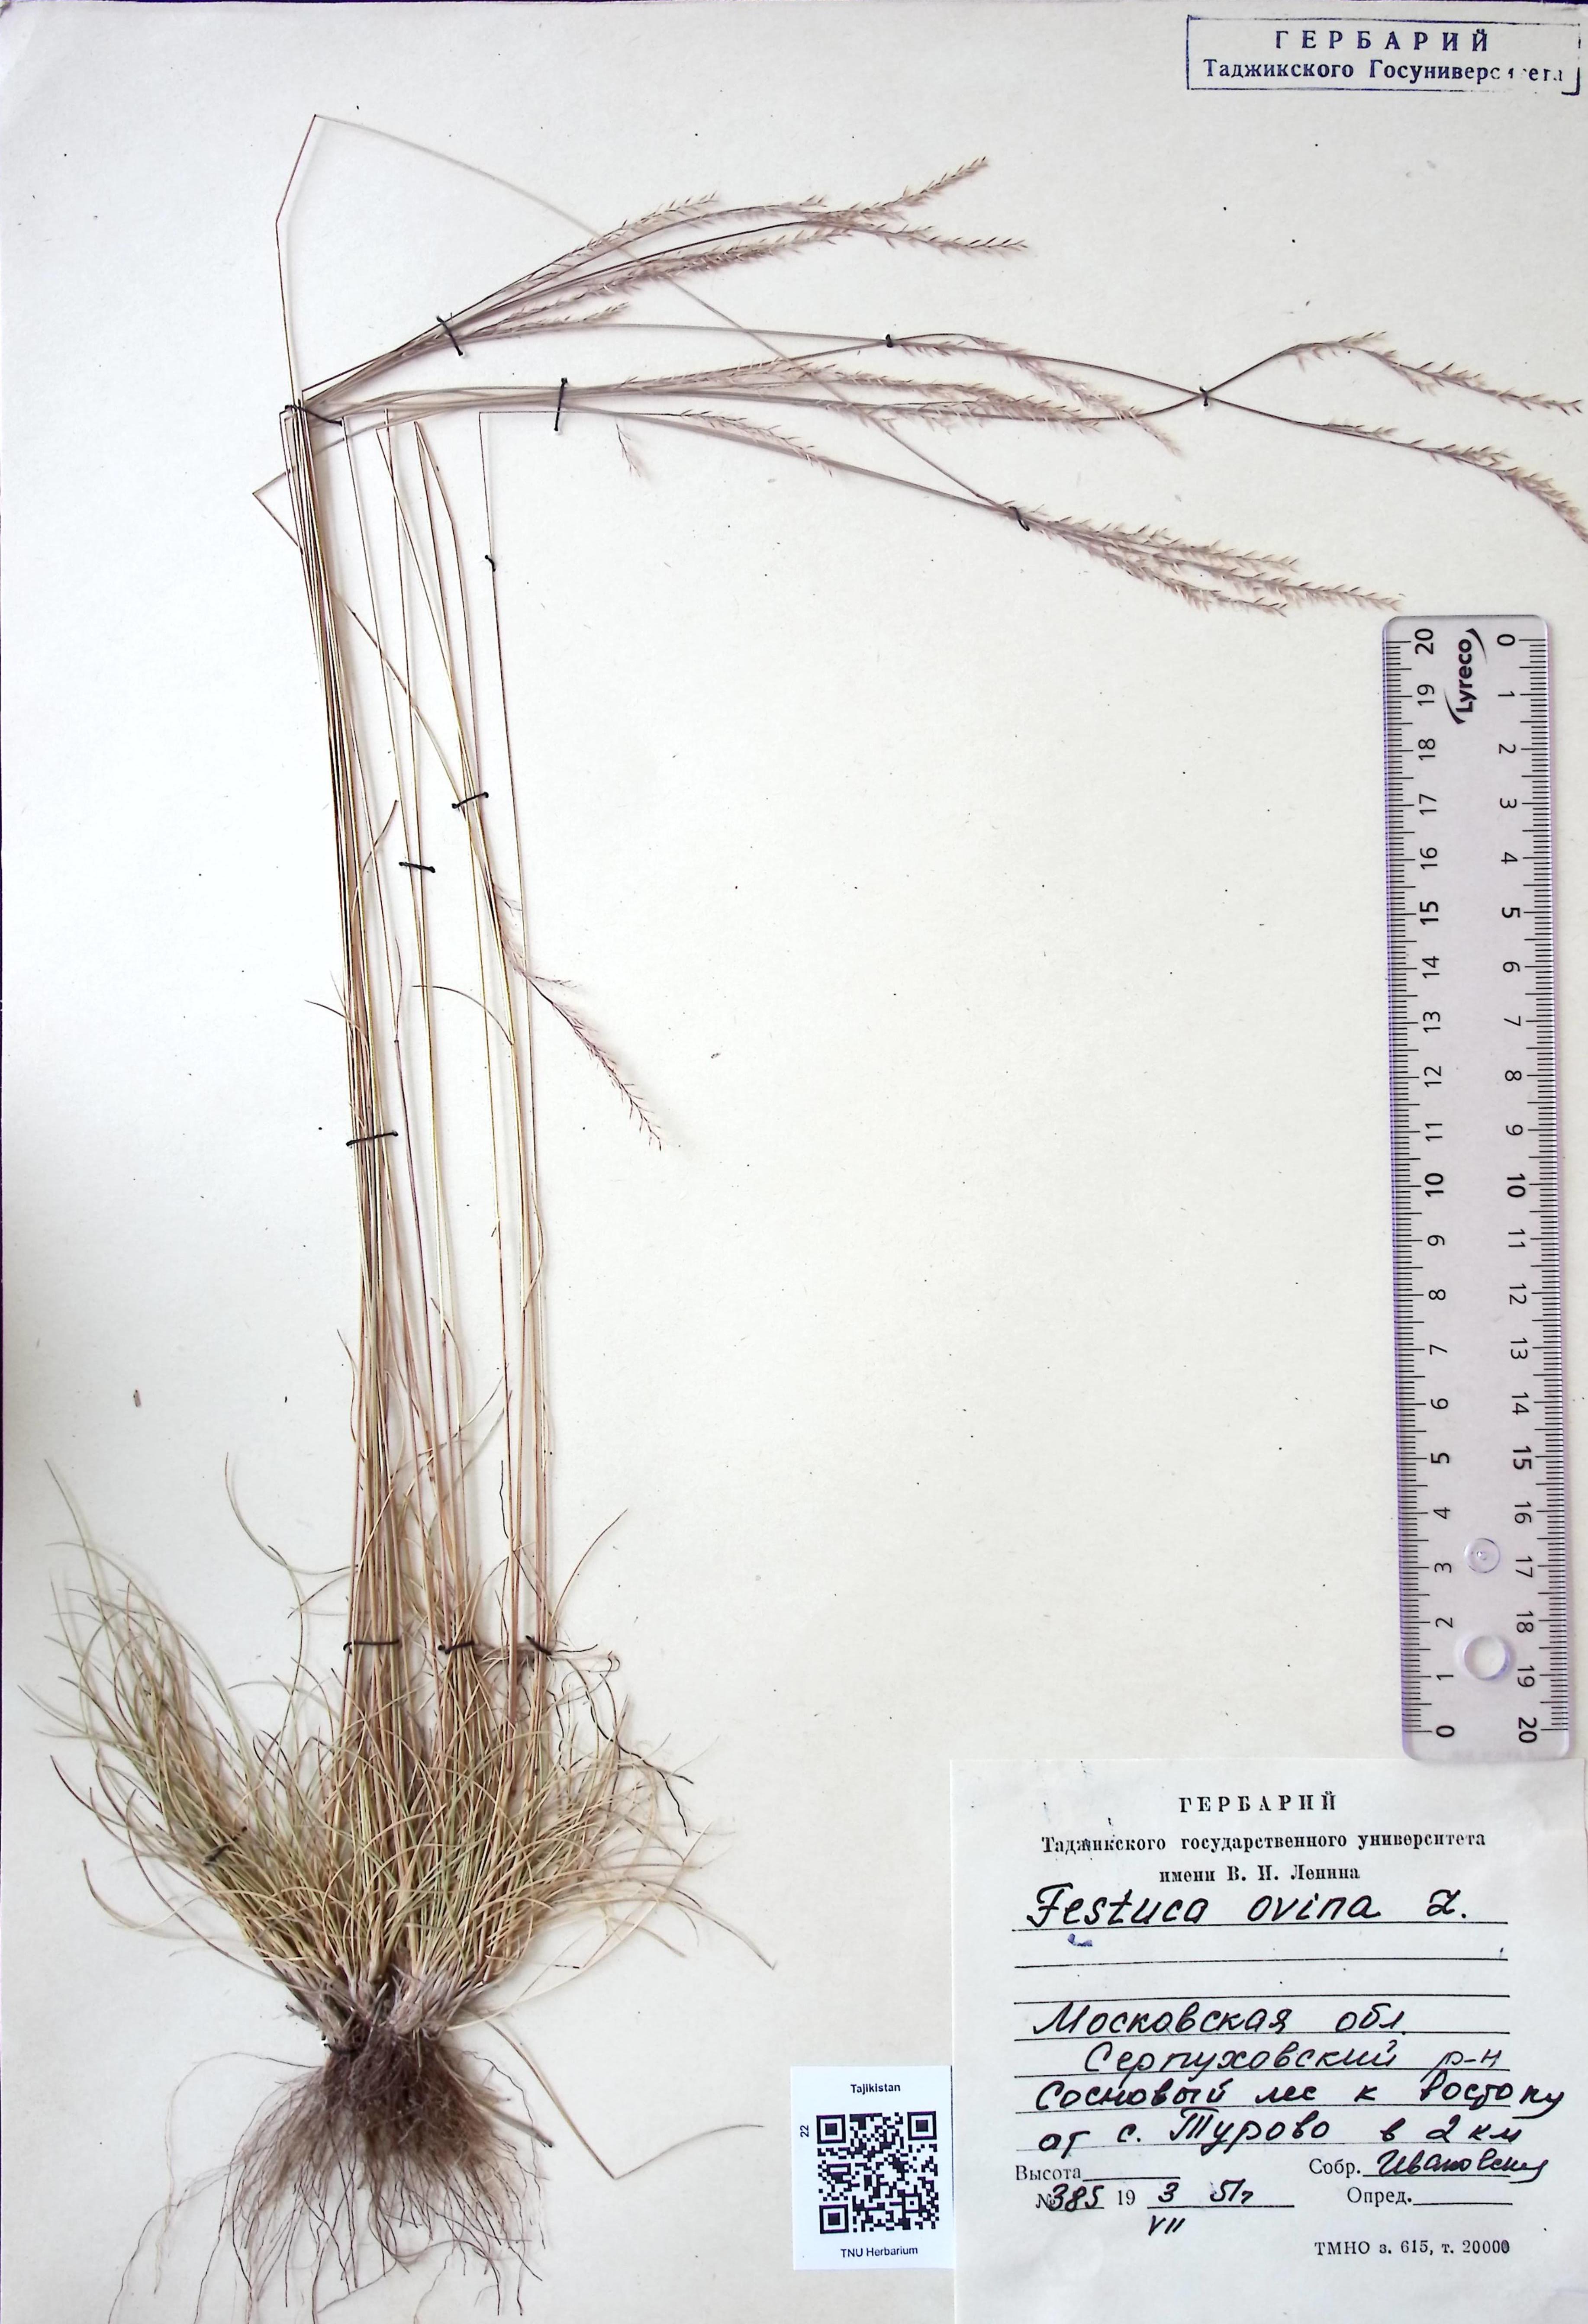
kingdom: Plantae
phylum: Tracheophyta
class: Liliopsida
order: Poales
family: Poaceae
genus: Festuca
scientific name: Festuca ovina
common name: Sheep fescue
